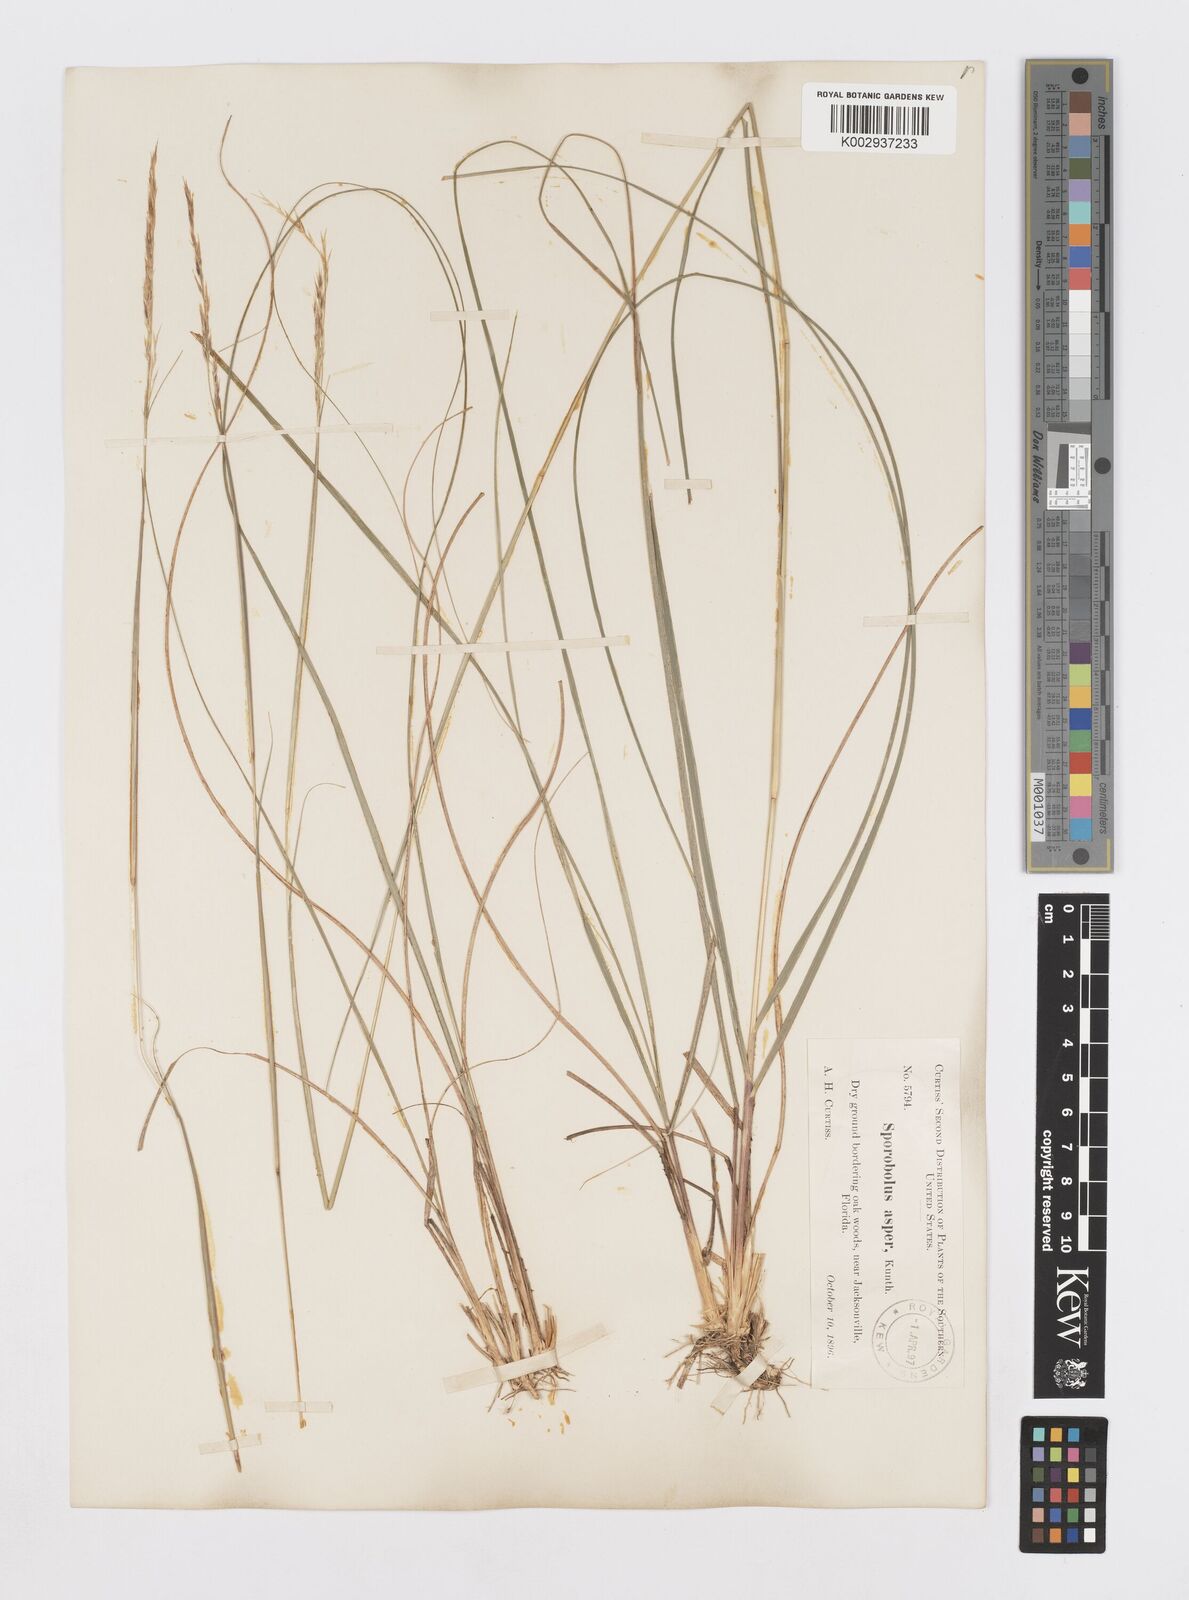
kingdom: Plantae
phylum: Tracheophyta
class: Liliopsida
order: Poales
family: Poaceae
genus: Sporobolus
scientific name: Sporobolus clandestinus
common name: Hidden dropseed
